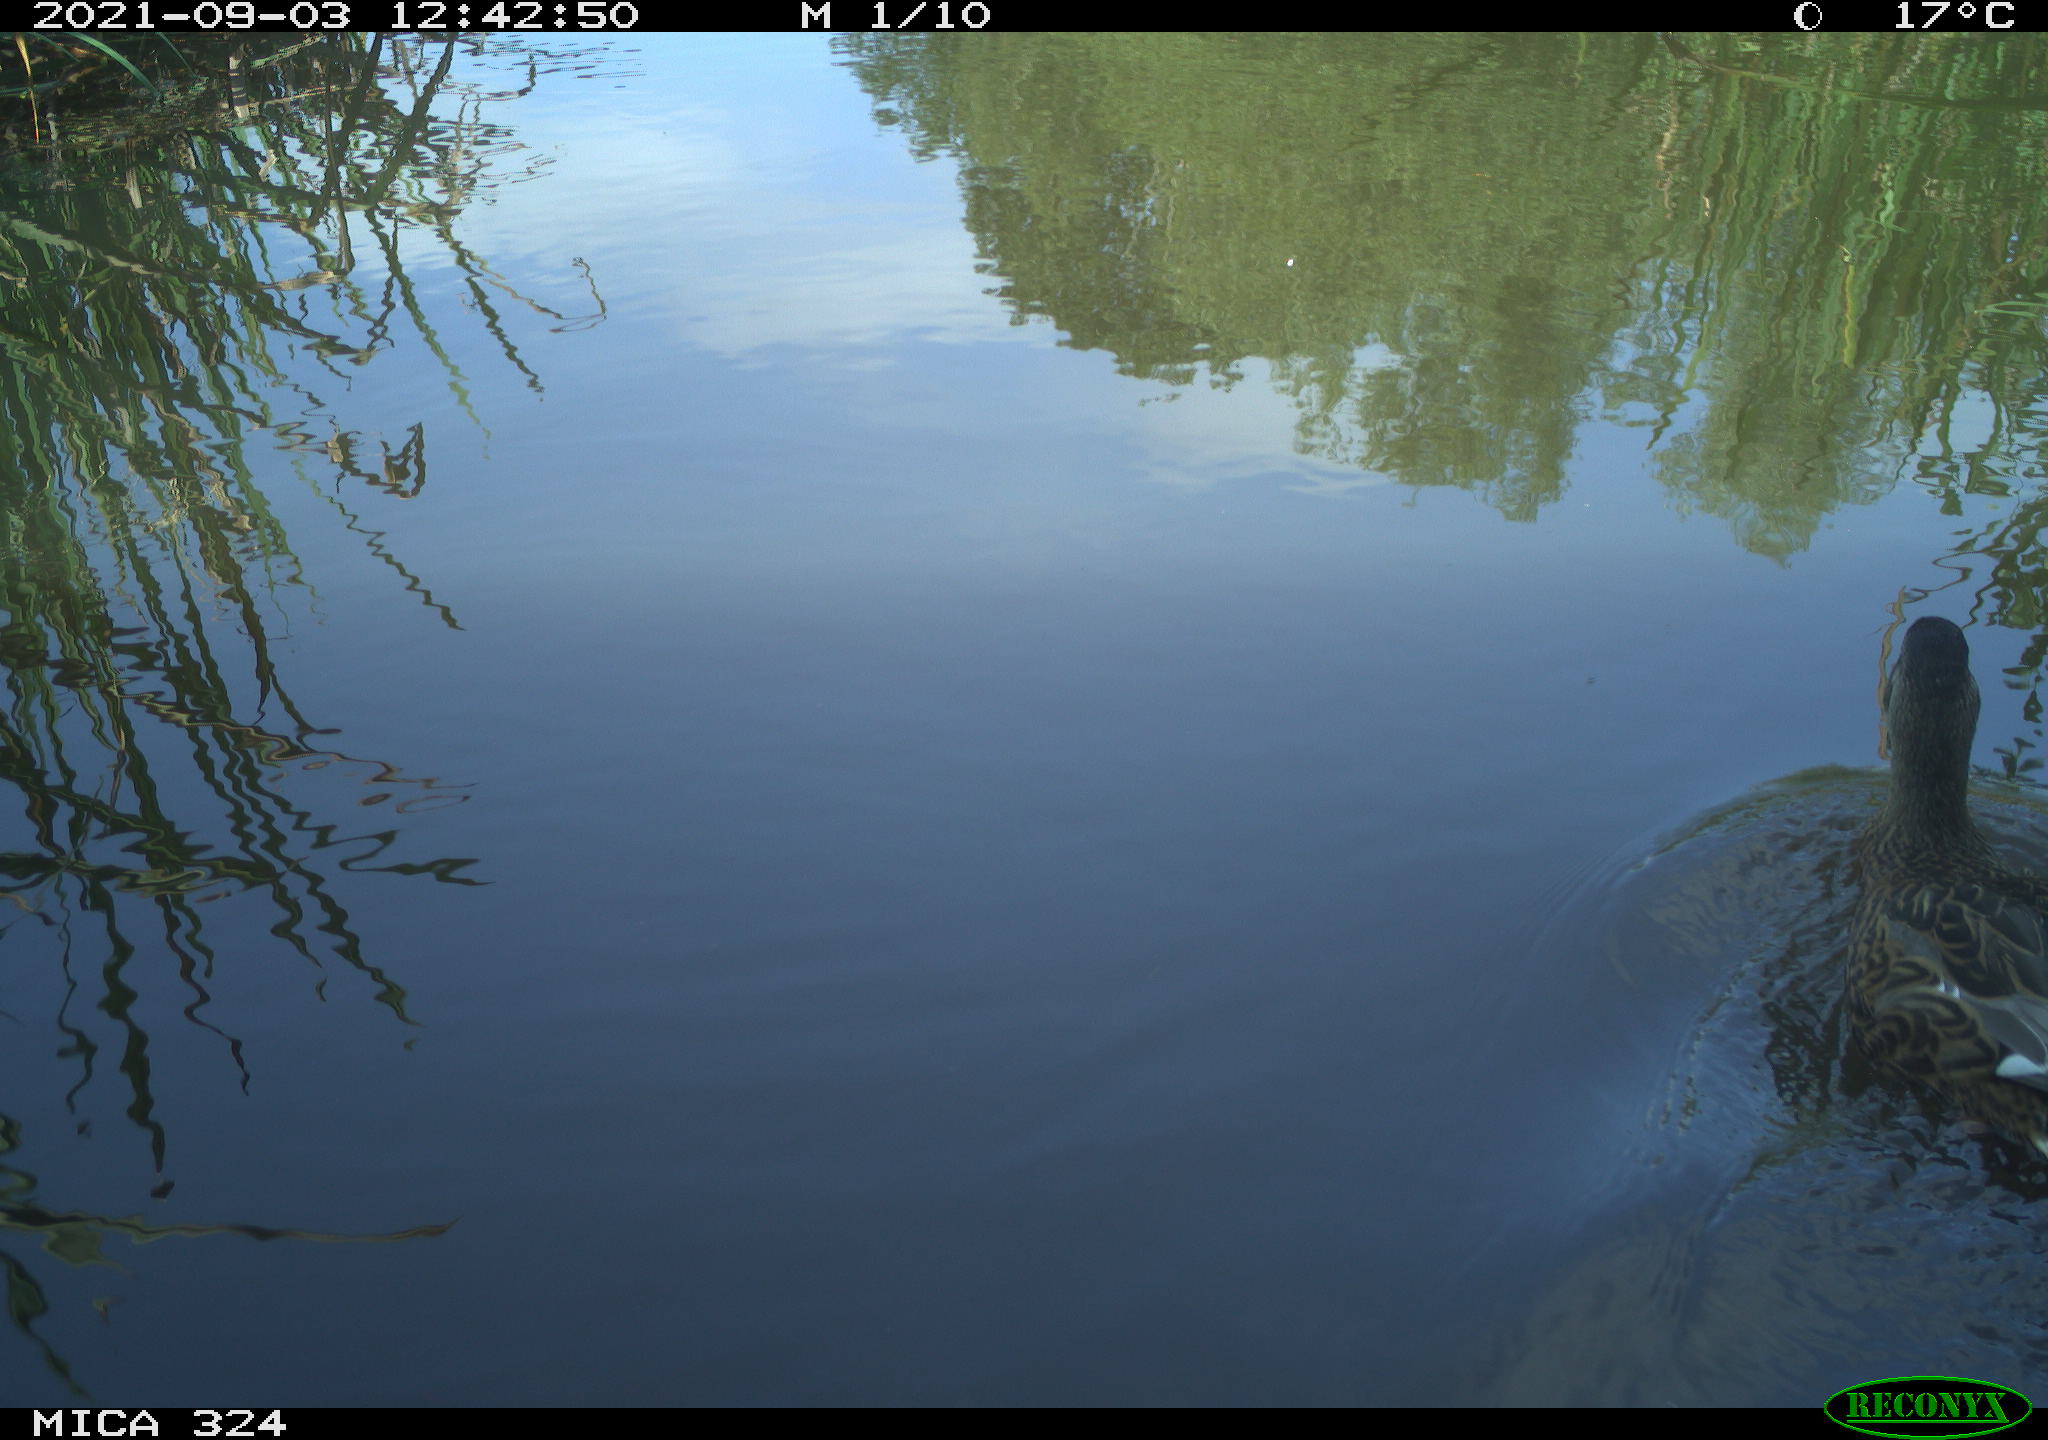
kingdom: Animalia
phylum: Chordata
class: Aves
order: Anseriformes
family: Anatidae
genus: Anas
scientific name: Anas platyrhynchos
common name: Mallard
